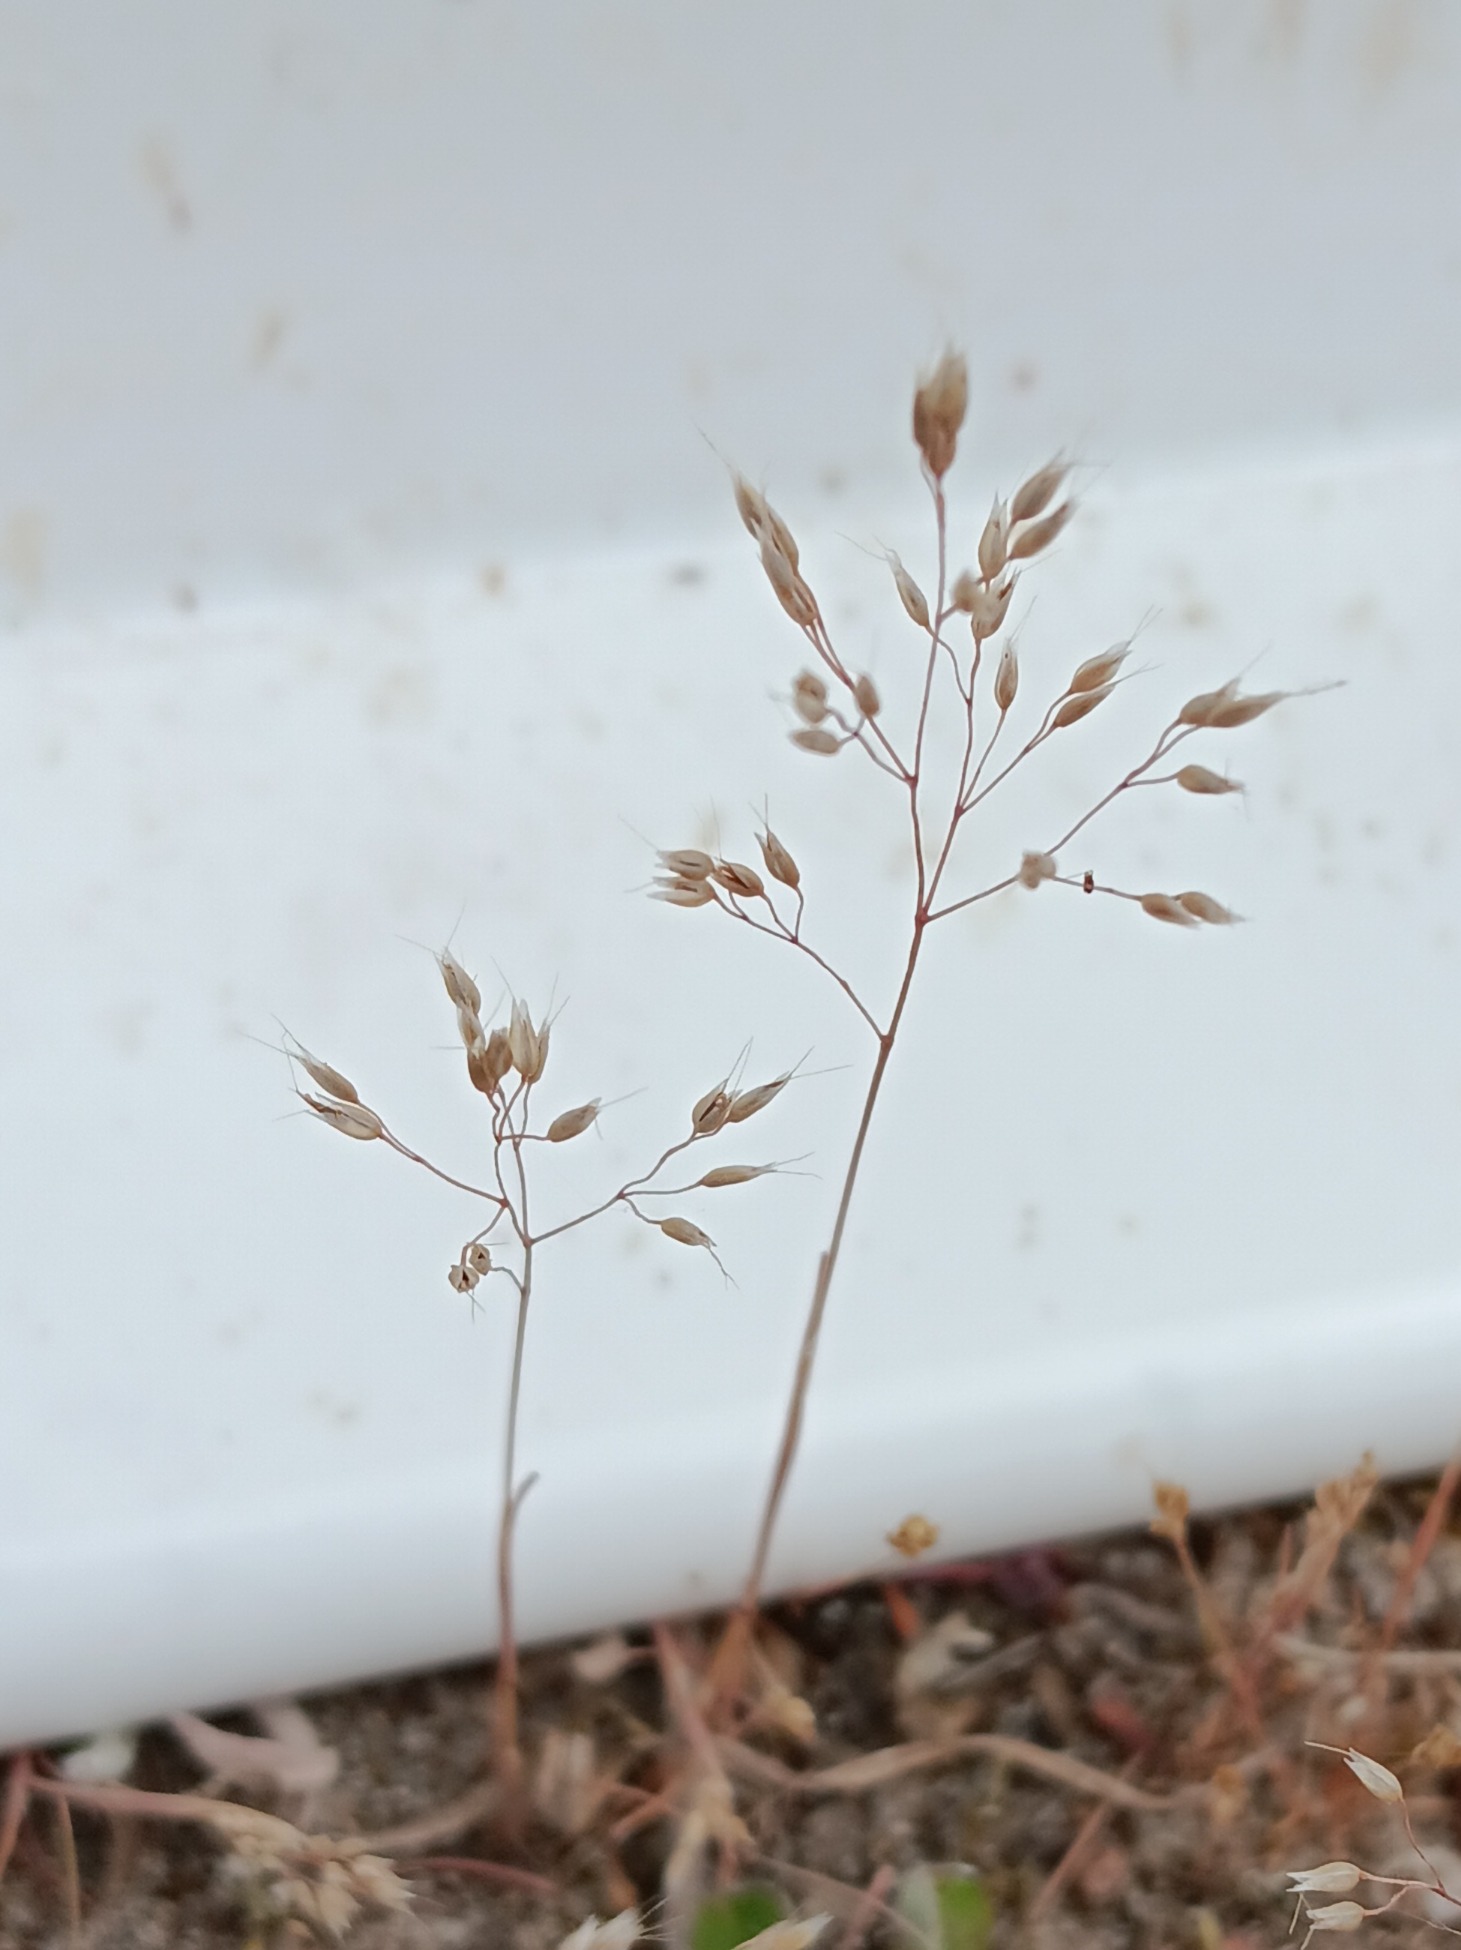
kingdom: Plantae
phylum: Tracheophyta
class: Liliopsida
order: Poales
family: Poaceae
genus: Aira
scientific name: Aira caryophyllea
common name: Udspærret dværgbunke
